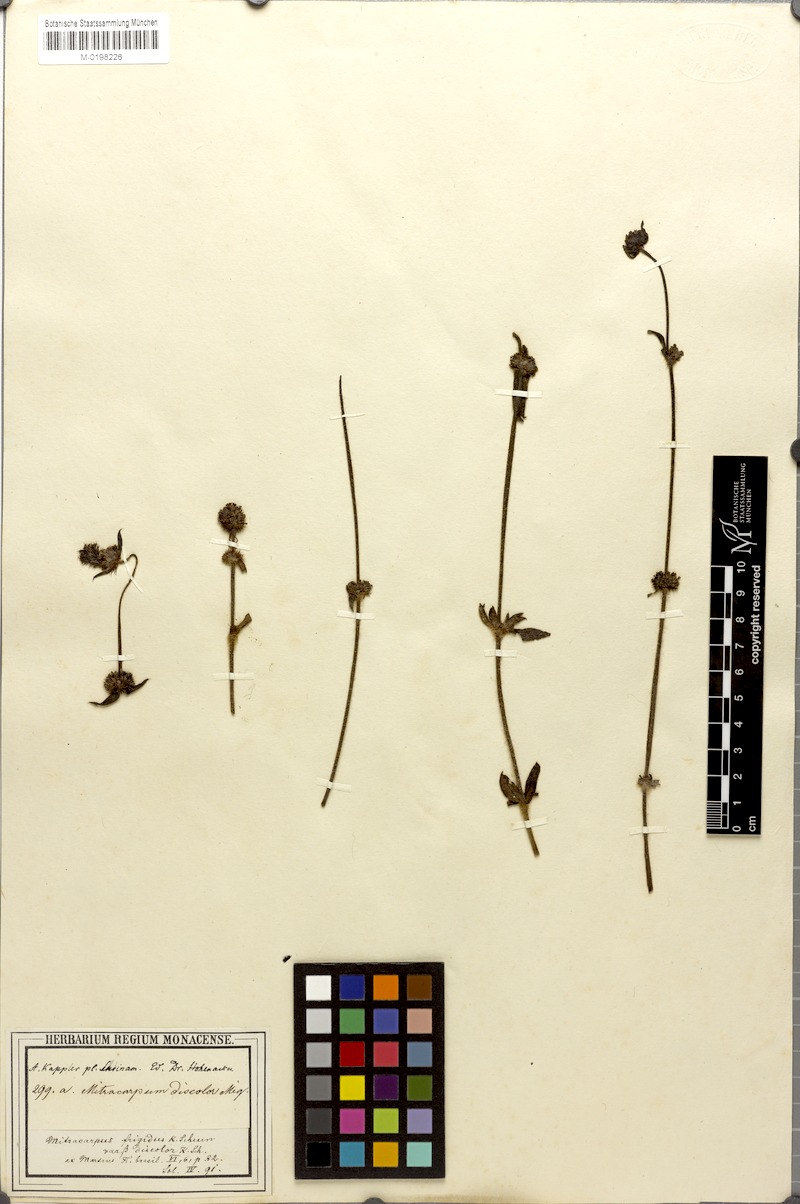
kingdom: Plantae
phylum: Tracheophyta
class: Magnoliopsida
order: Gentianales
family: Rubiaceae
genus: Mitracarpus
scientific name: Mitracarpus salzmannianus
